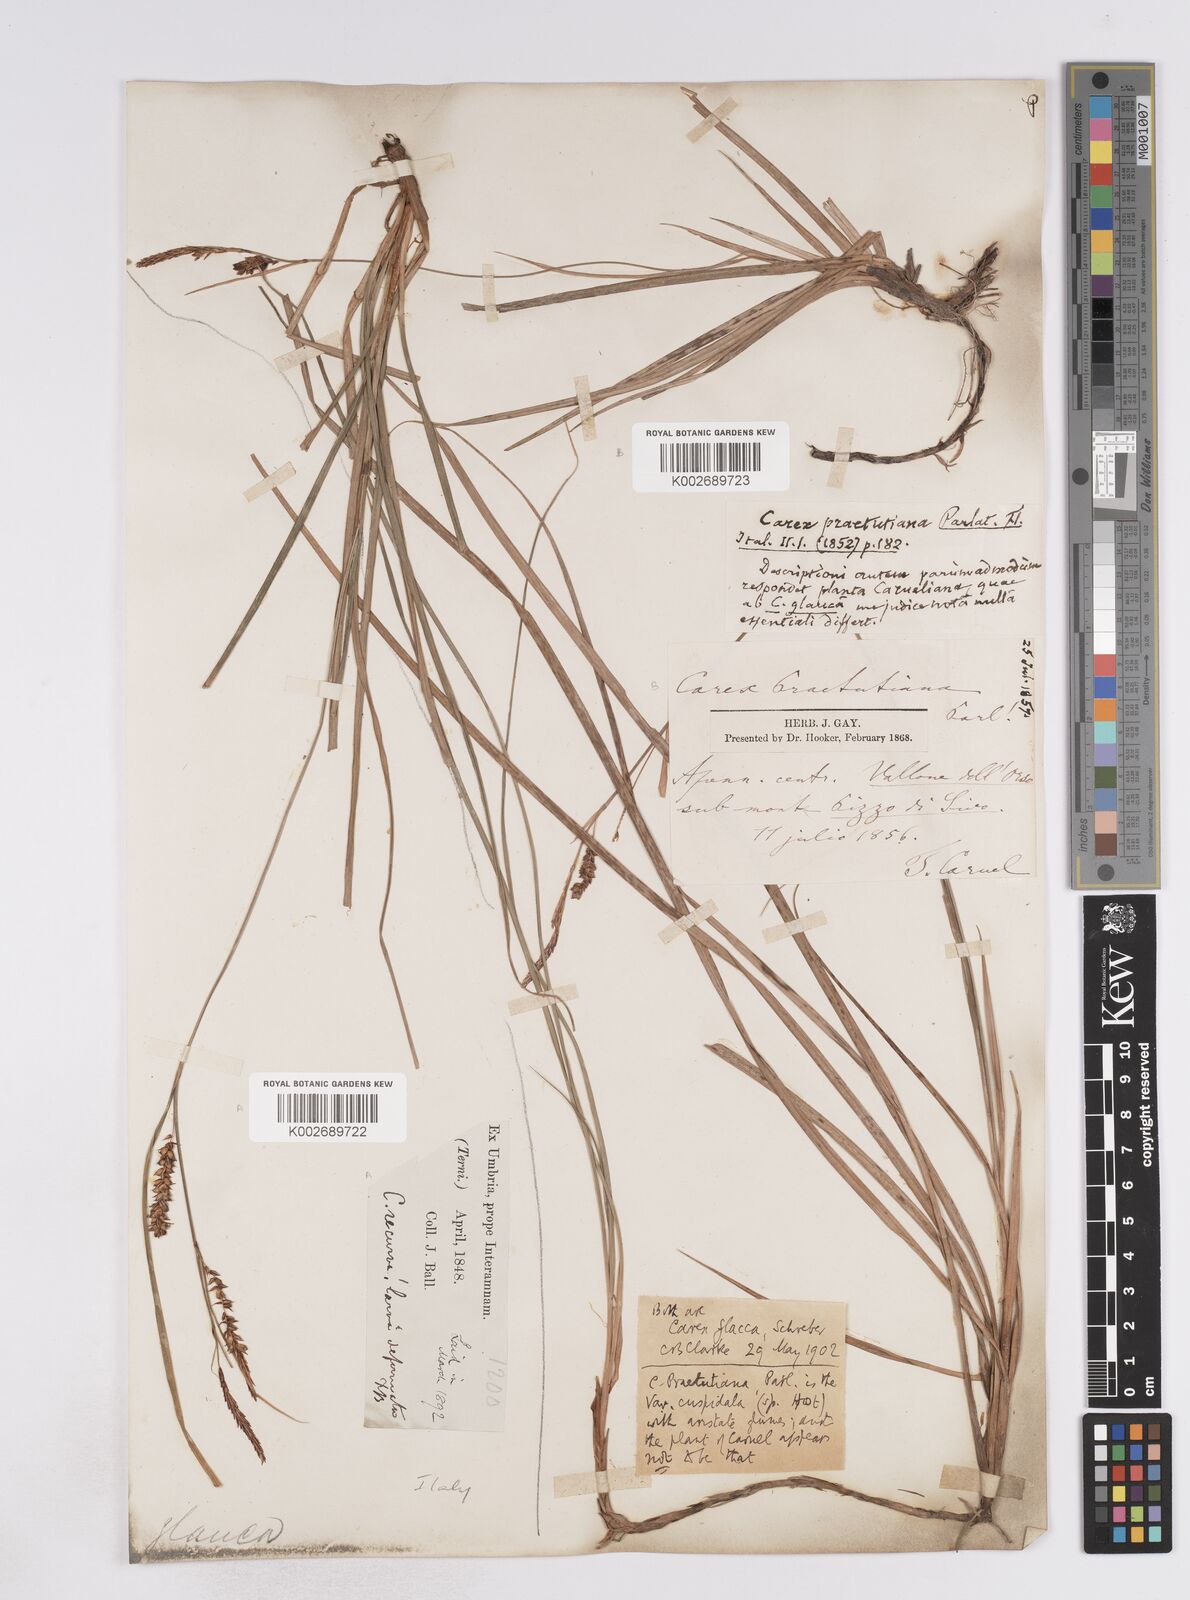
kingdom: Plantae
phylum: Tracheophyta
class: Liliopsida
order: Poales
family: Cyperaceae
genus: Carex
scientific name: Carex flacca
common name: Glaucous sedge
